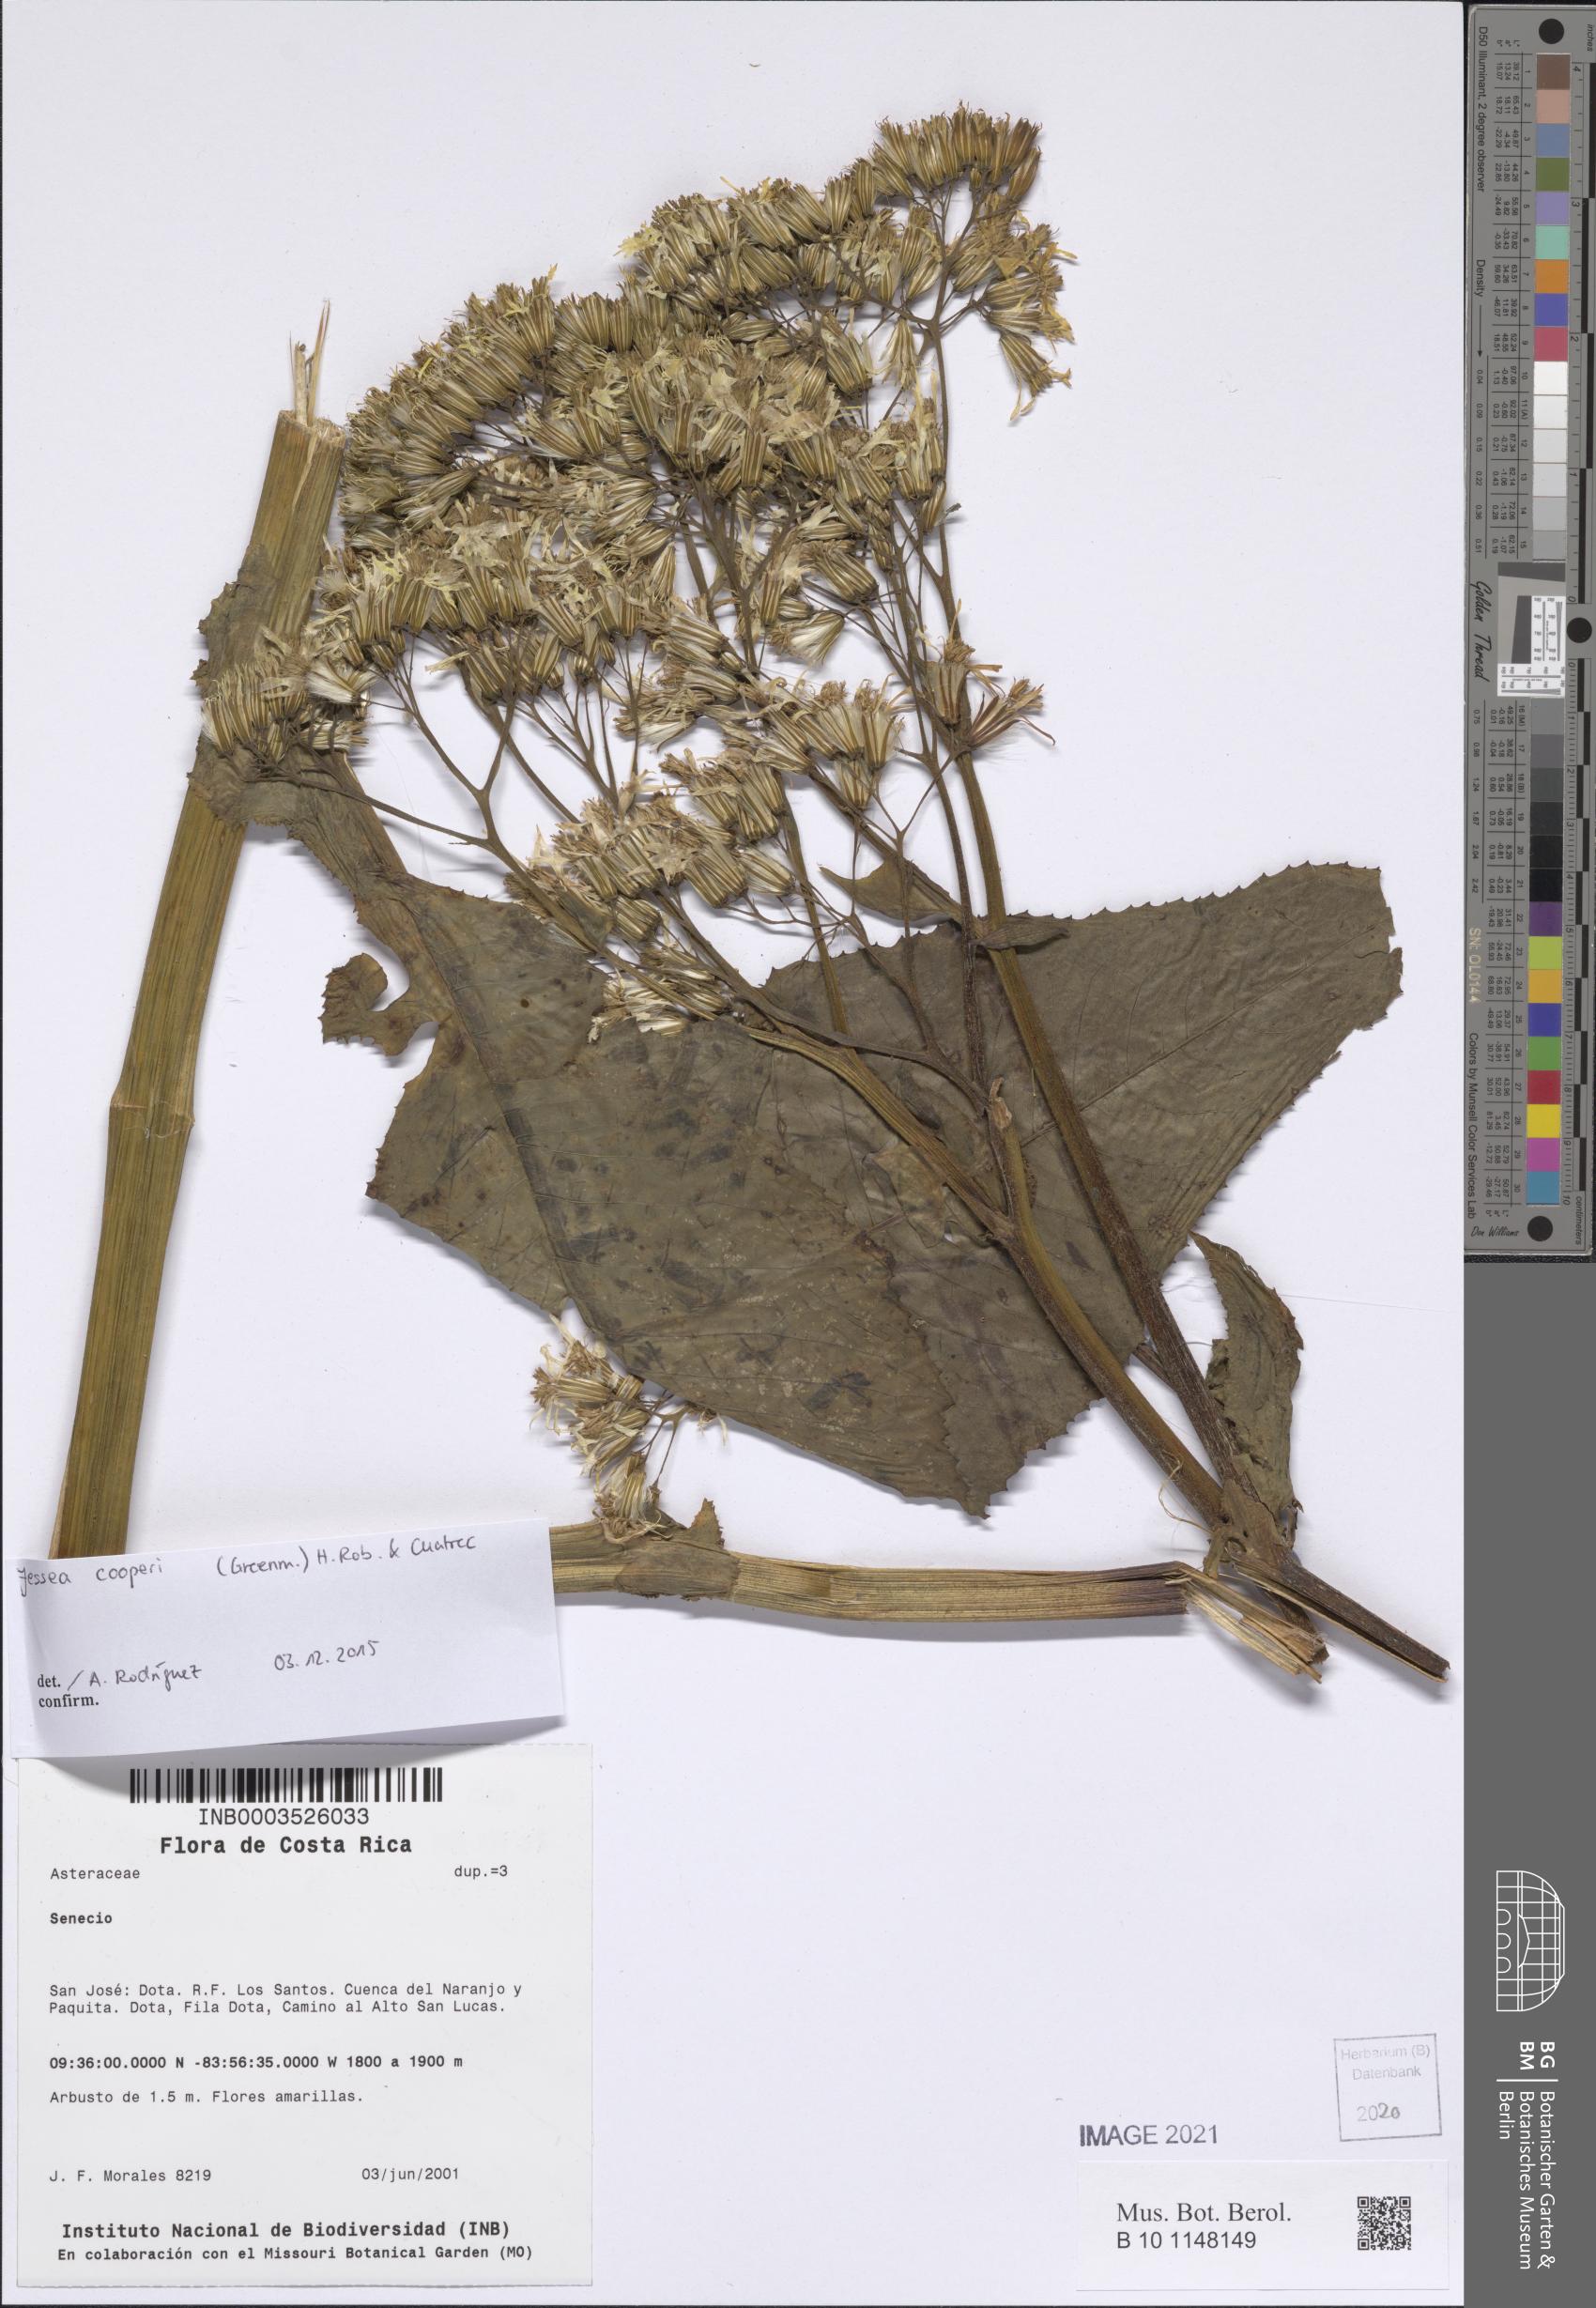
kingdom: Plantae
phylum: Tracheophyta
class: Magnoliopsida
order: Asterales
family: Asteraceae
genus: Jessea
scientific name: Jessea cooperi
